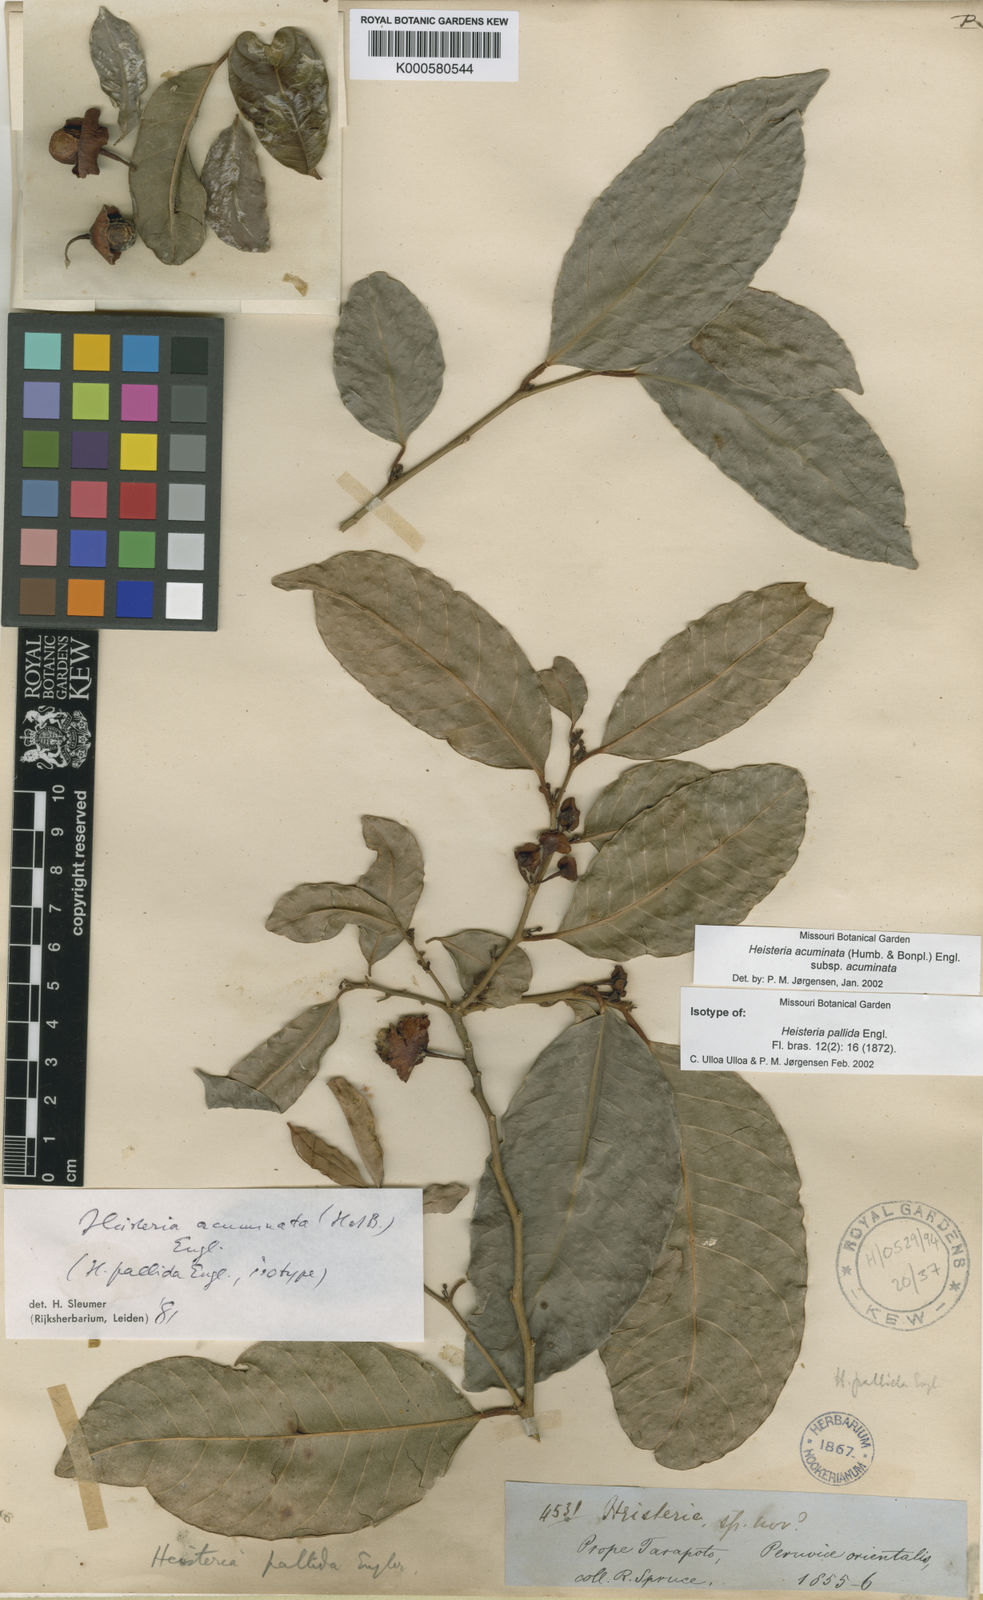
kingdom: Plantae
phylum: Tracheophyta
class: Magnoliopsida
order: Santalales
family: Erythropalaceae
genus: Heisteria
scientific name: Heisteria acuminata
